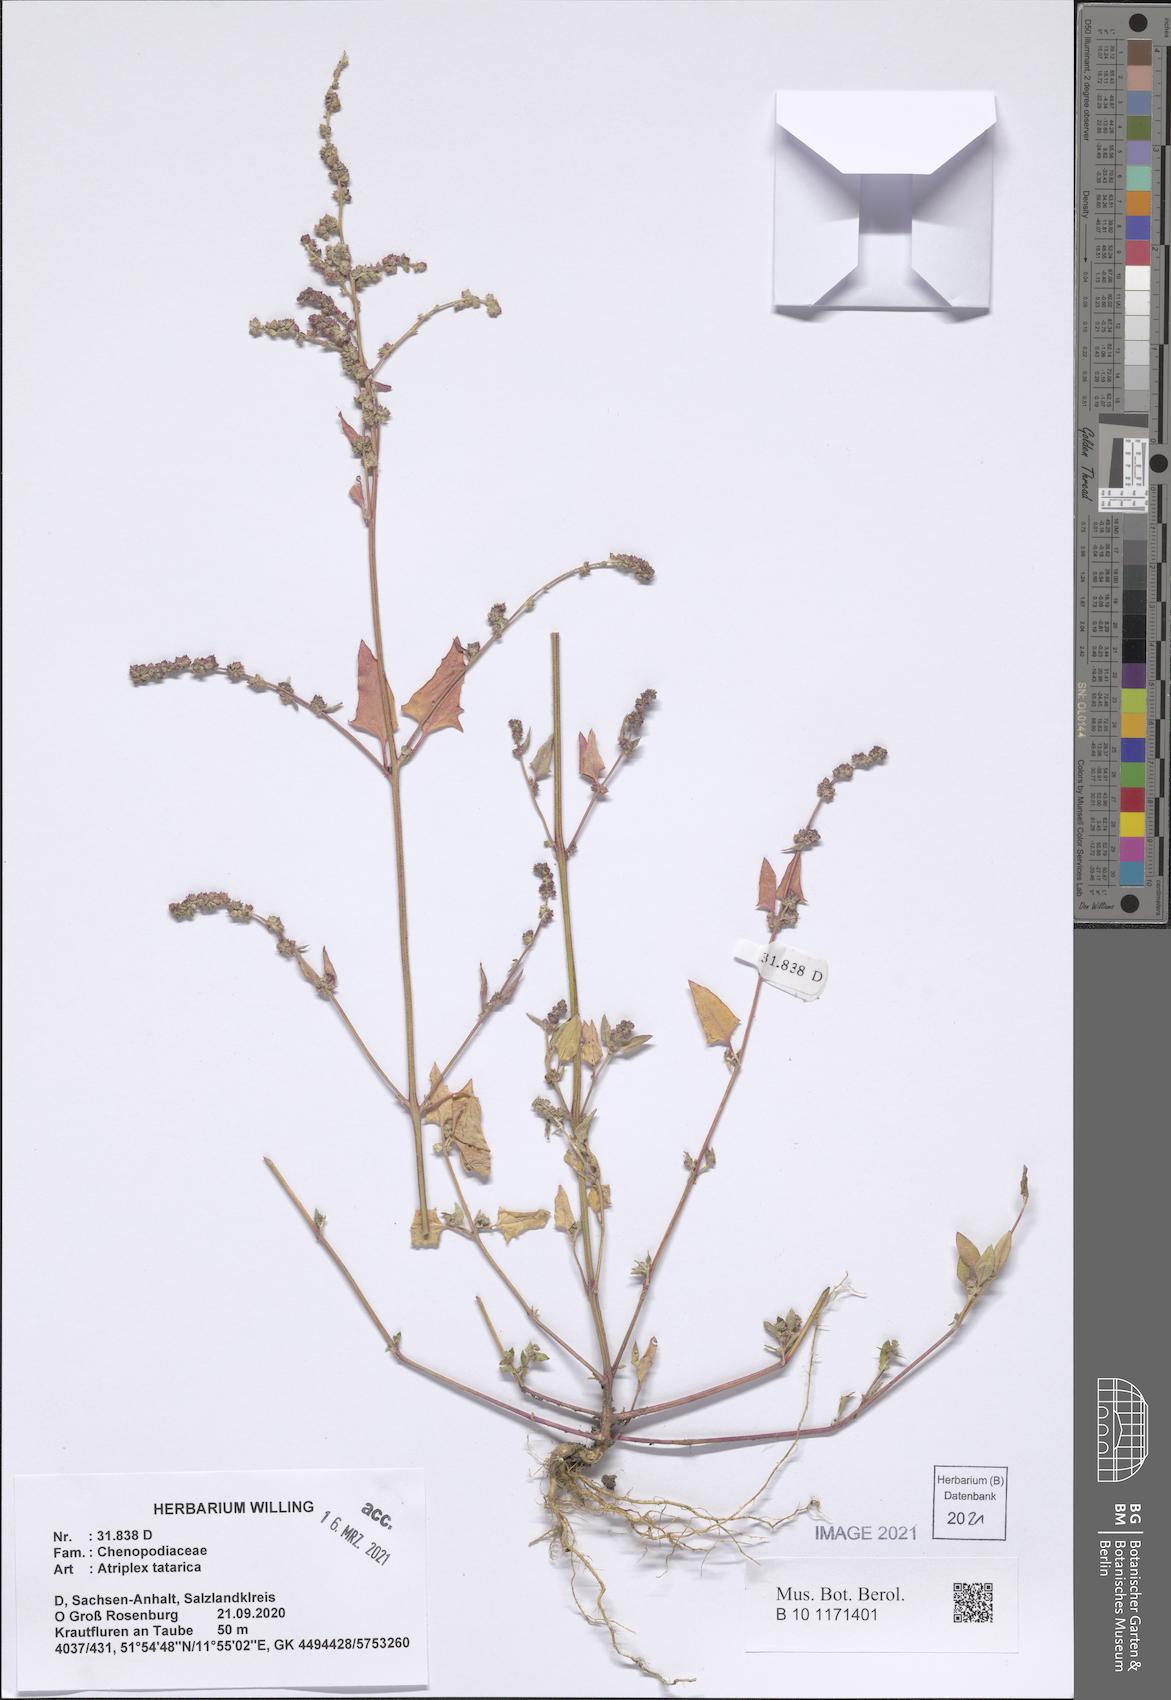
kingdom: Plantae
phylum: Tracheophyta
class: Magnoliopsida
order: Caryophyllales
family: Amaranthaceae
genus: Atriplex
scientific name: Atriplex tatarica
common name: Tatarian orache
